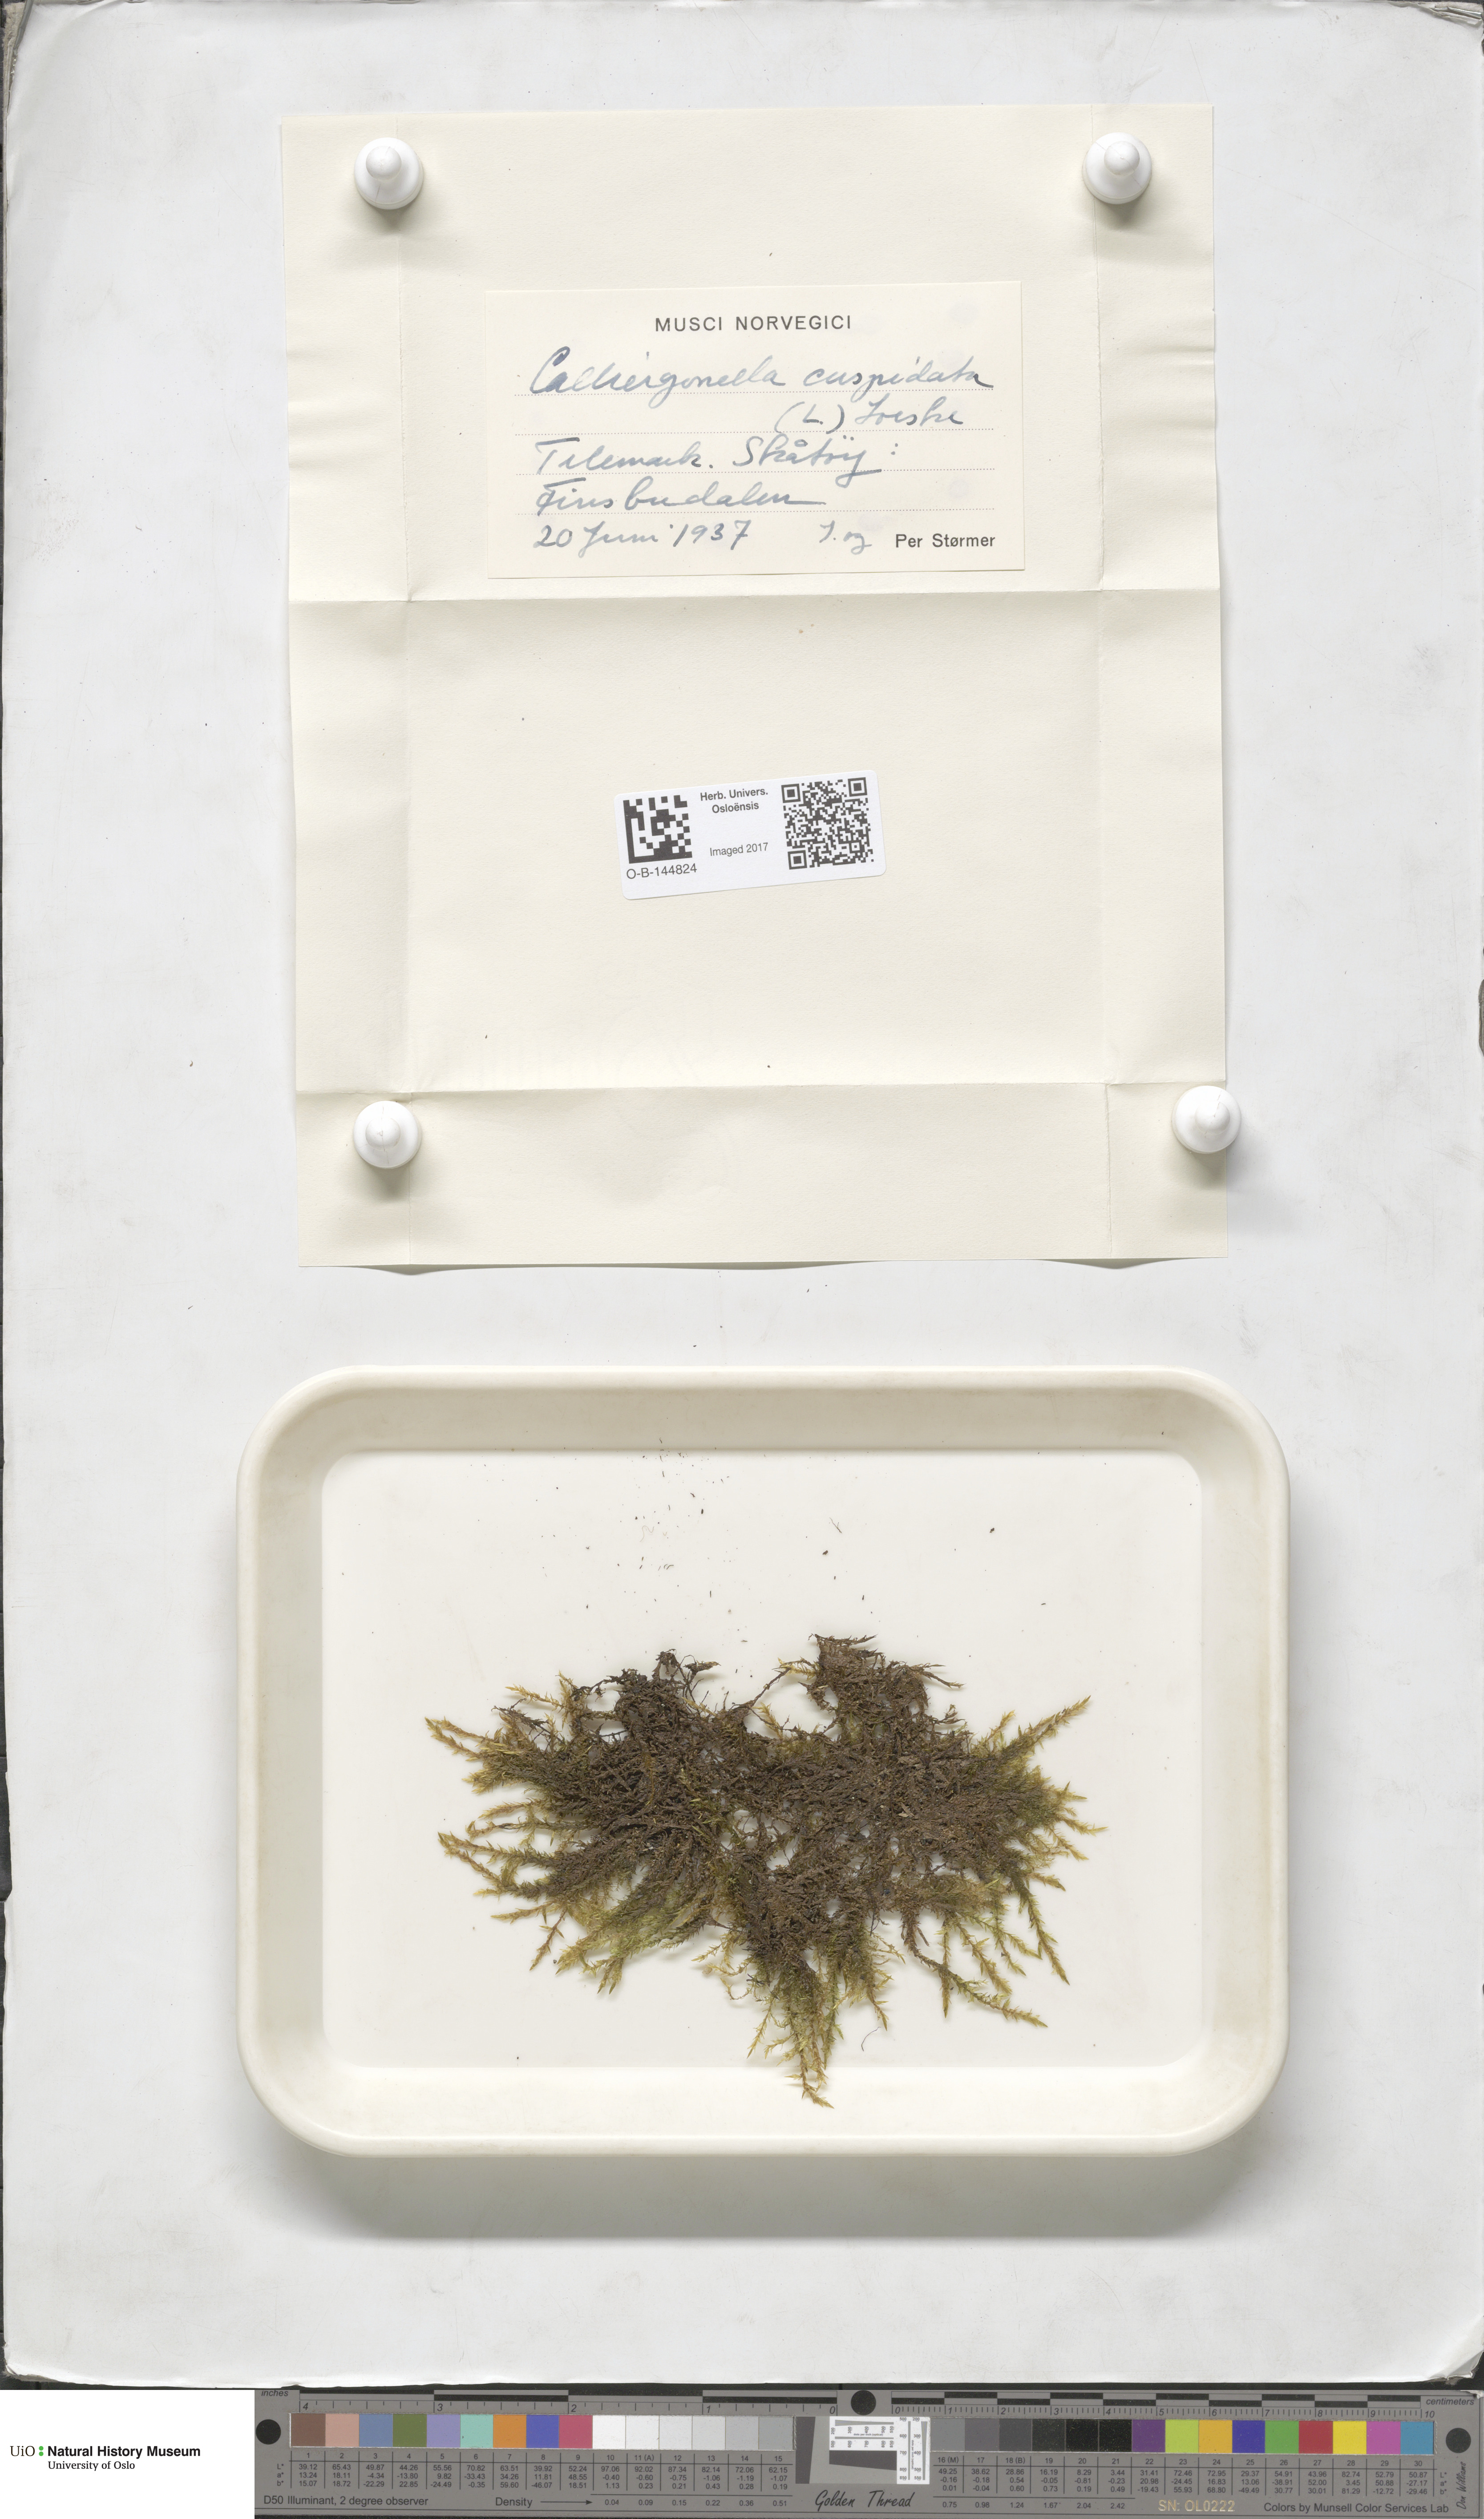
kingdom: Plantae
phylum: Bryophyta
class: Bryopsida
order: Hypnales
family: Pylaisiaceae
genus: Calliergonella
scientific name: Calliergonella cuspidata
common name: Common large wetland moss
